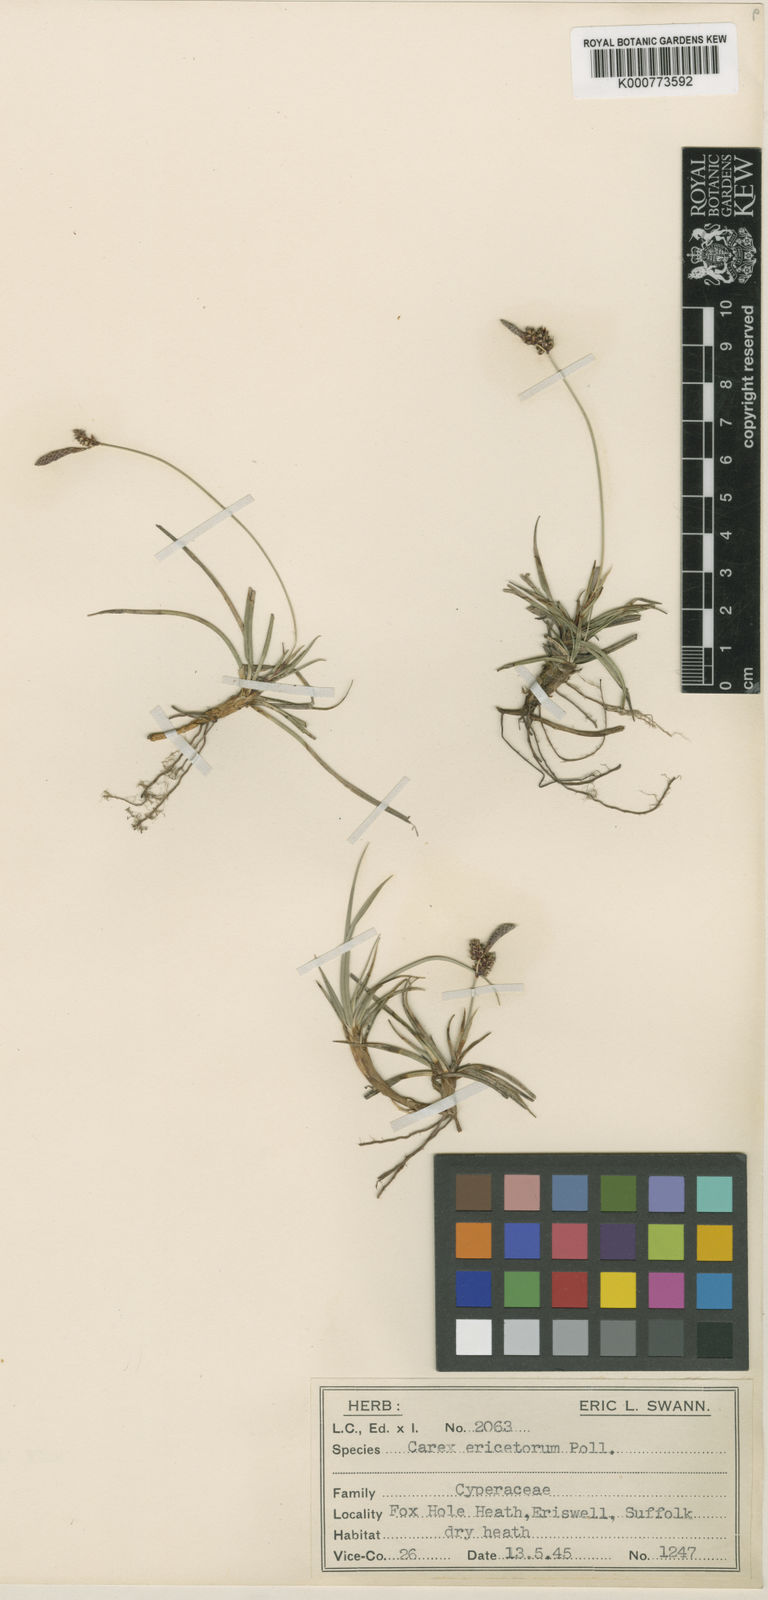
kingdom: Plantae
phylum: Tracheophyta
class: Liliopsida
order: Poales
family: Cyperaceae
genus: Carex
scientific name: Carex ericetorum
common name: Rare spring-sedge
